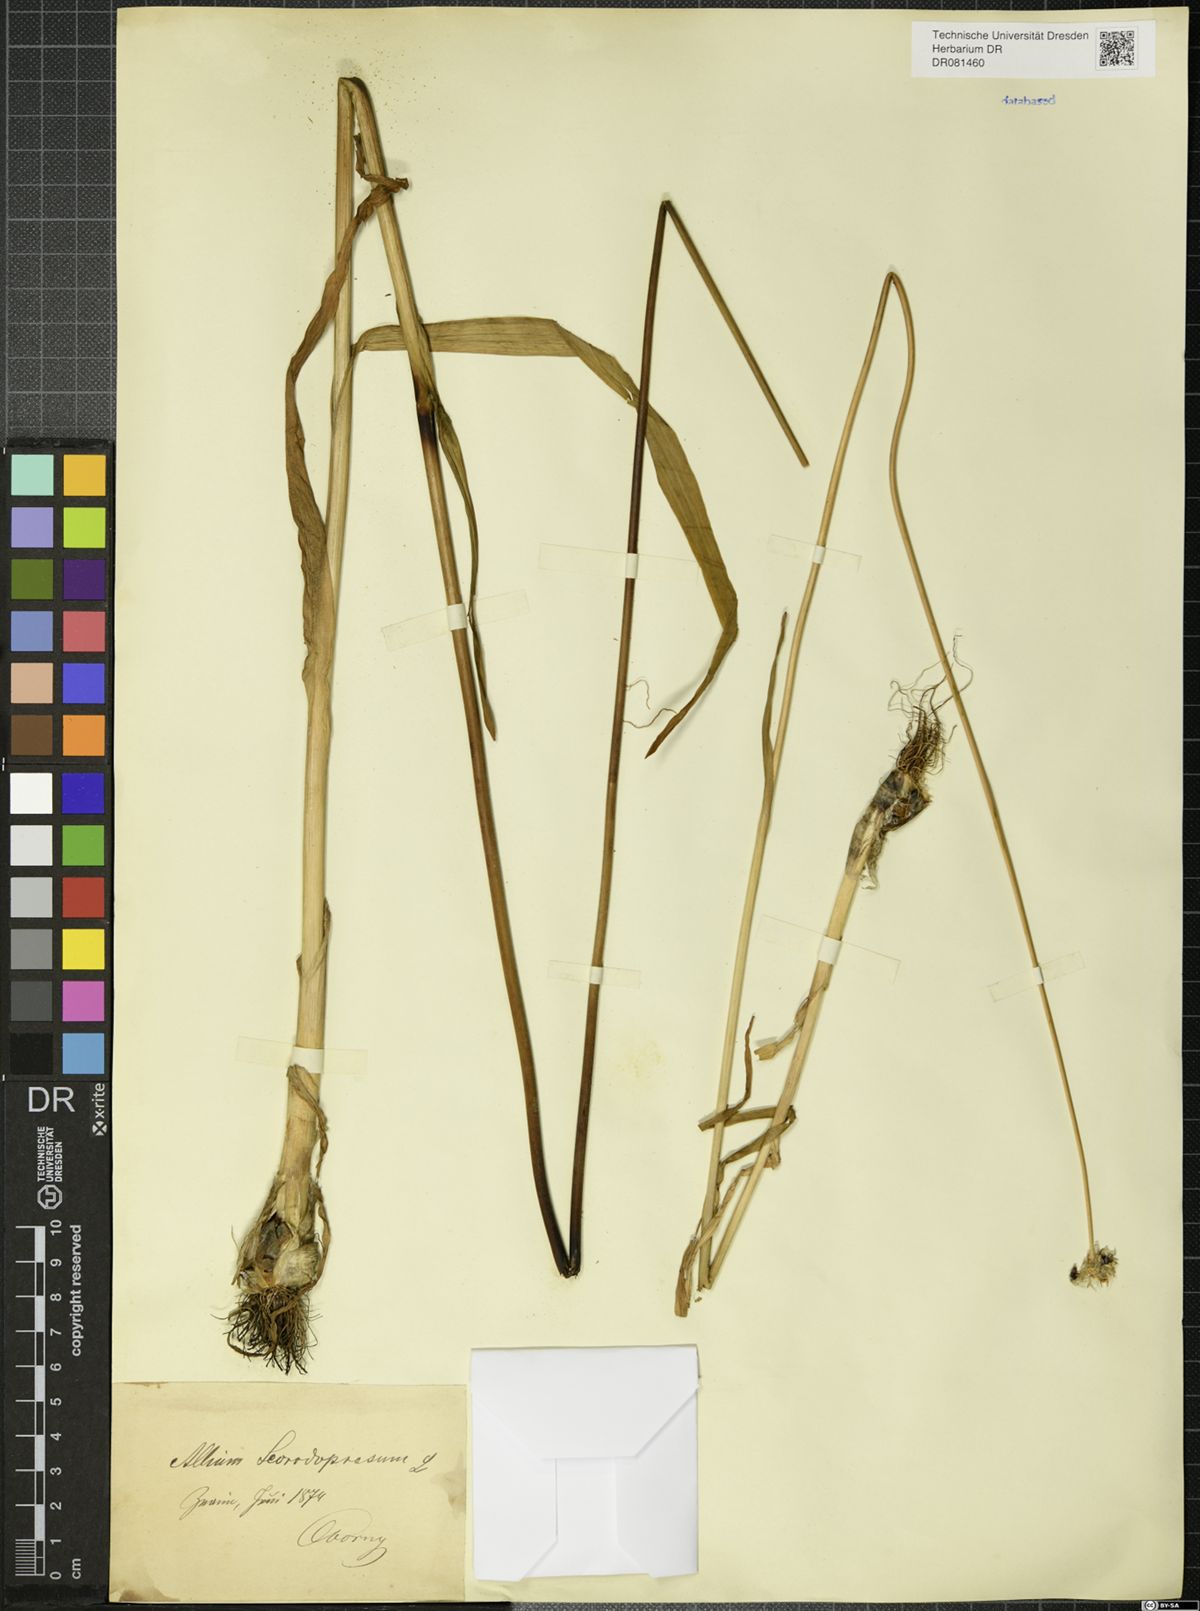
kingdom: Plantae
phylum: Tracheophyta
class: Liliopsida
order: Asparagales
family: Amaryllidaceae
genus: Allium
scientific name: Allium scorodoprasum
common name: Sand leek
